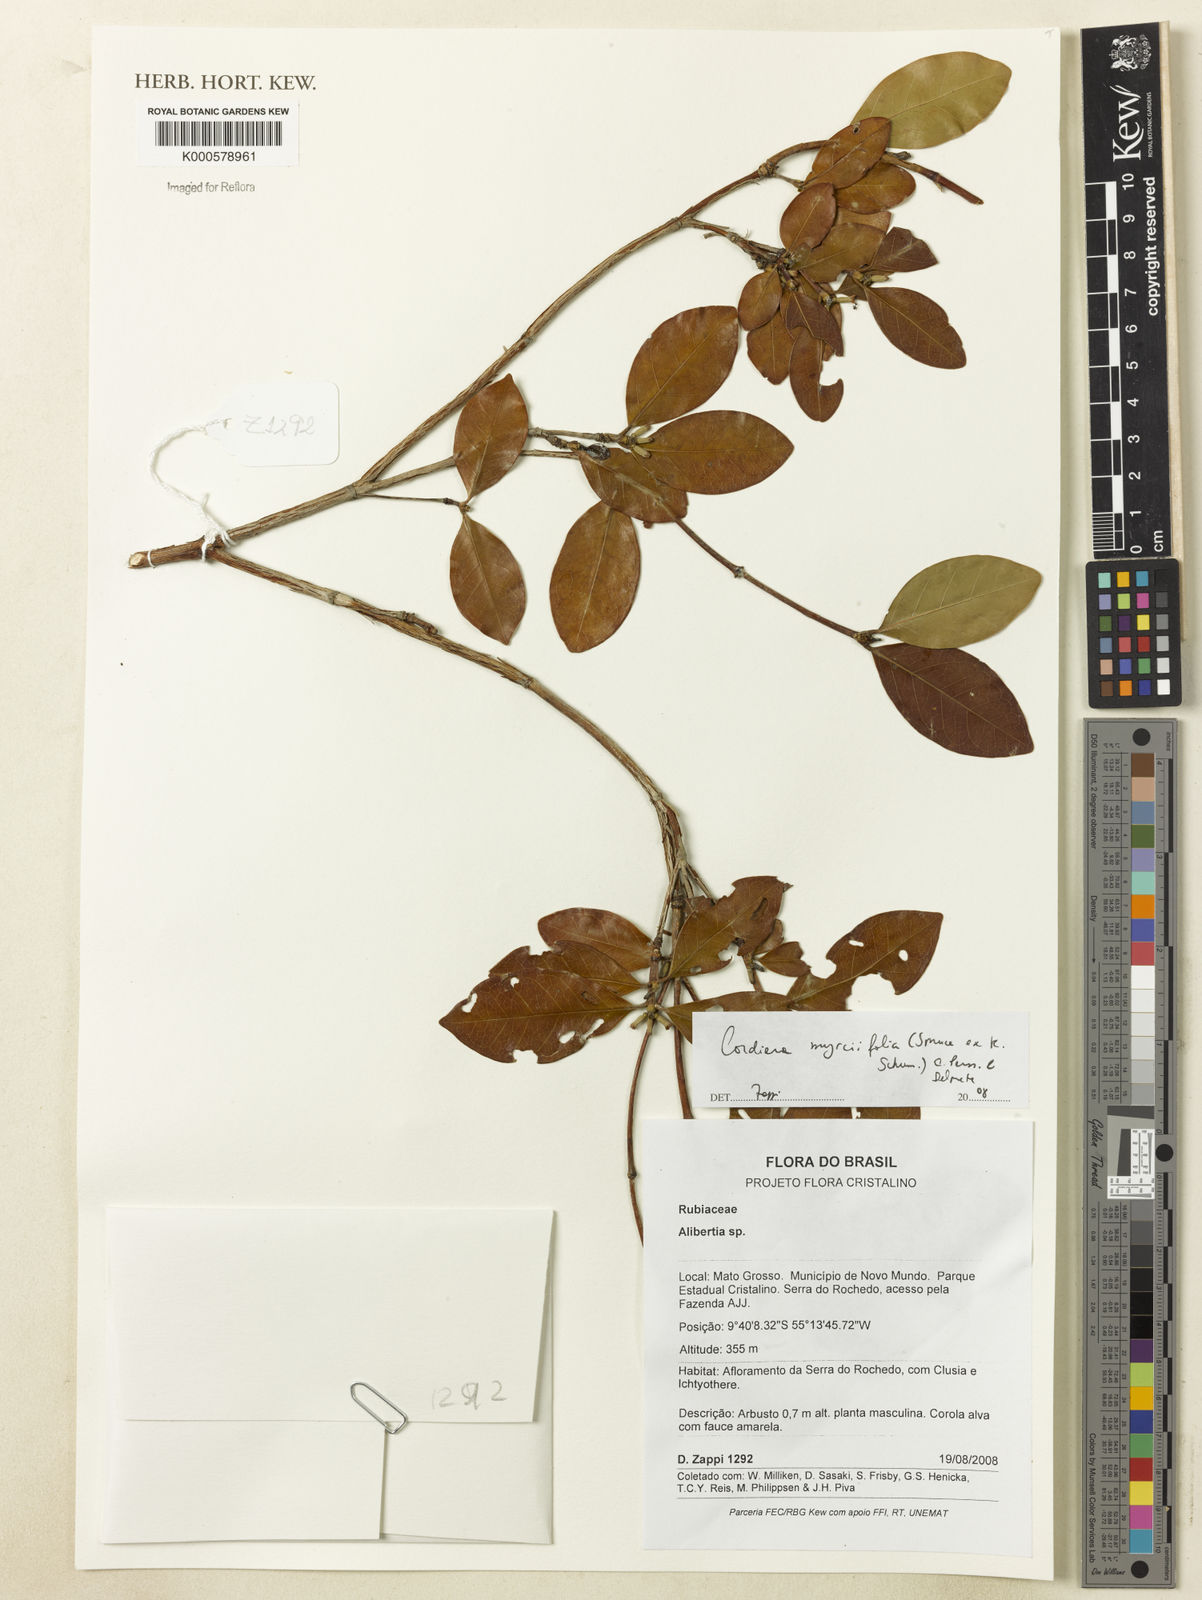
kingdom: Plantae
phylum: Tracheophyta
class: Magnoliopsida
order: Gentianales
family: Rubiaceae
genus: Cordiera
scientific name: Cordiera myrciifolia
